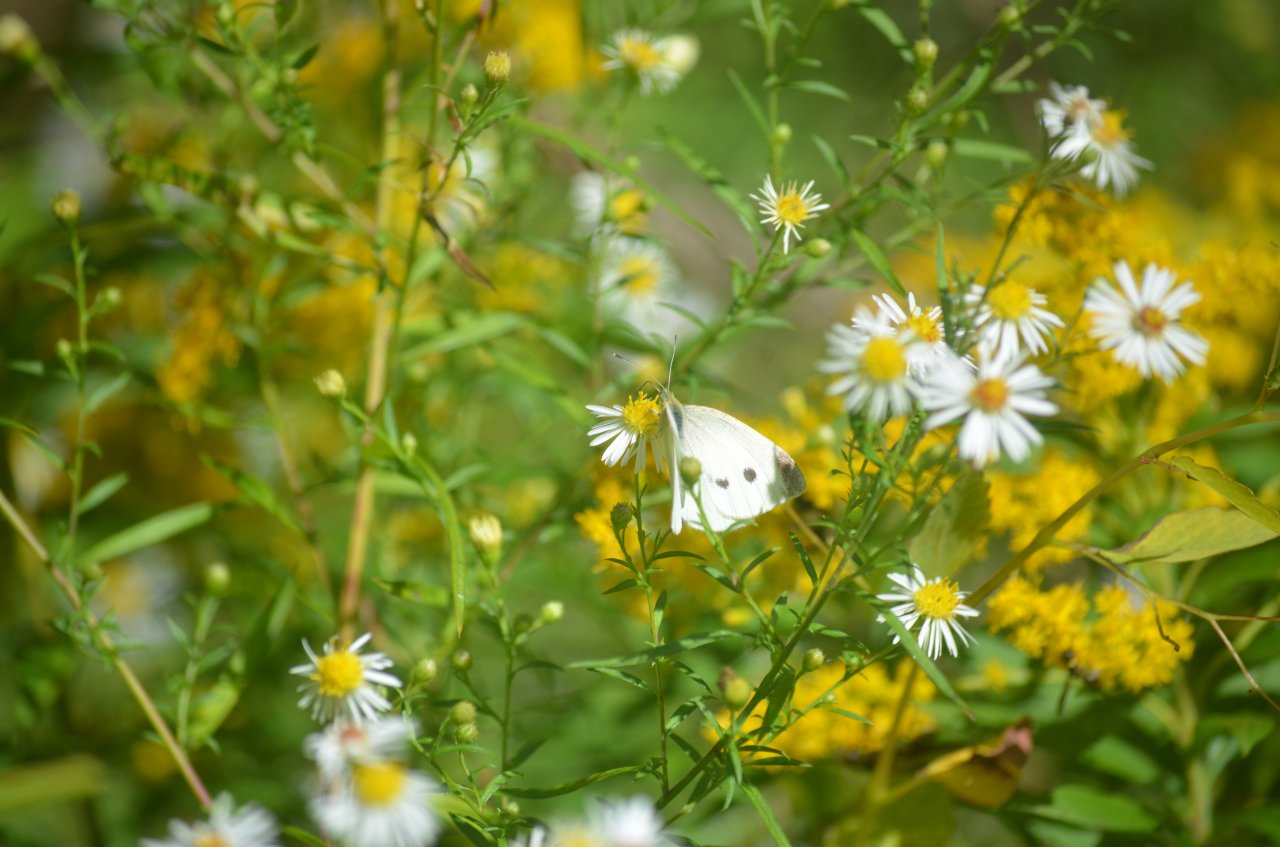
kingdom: Animalia
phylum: Arthropoda
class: Insecta
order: Lepidoptera
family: Pieridae
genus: Pieris
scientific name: Pieris rapae
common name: Cabbage White
